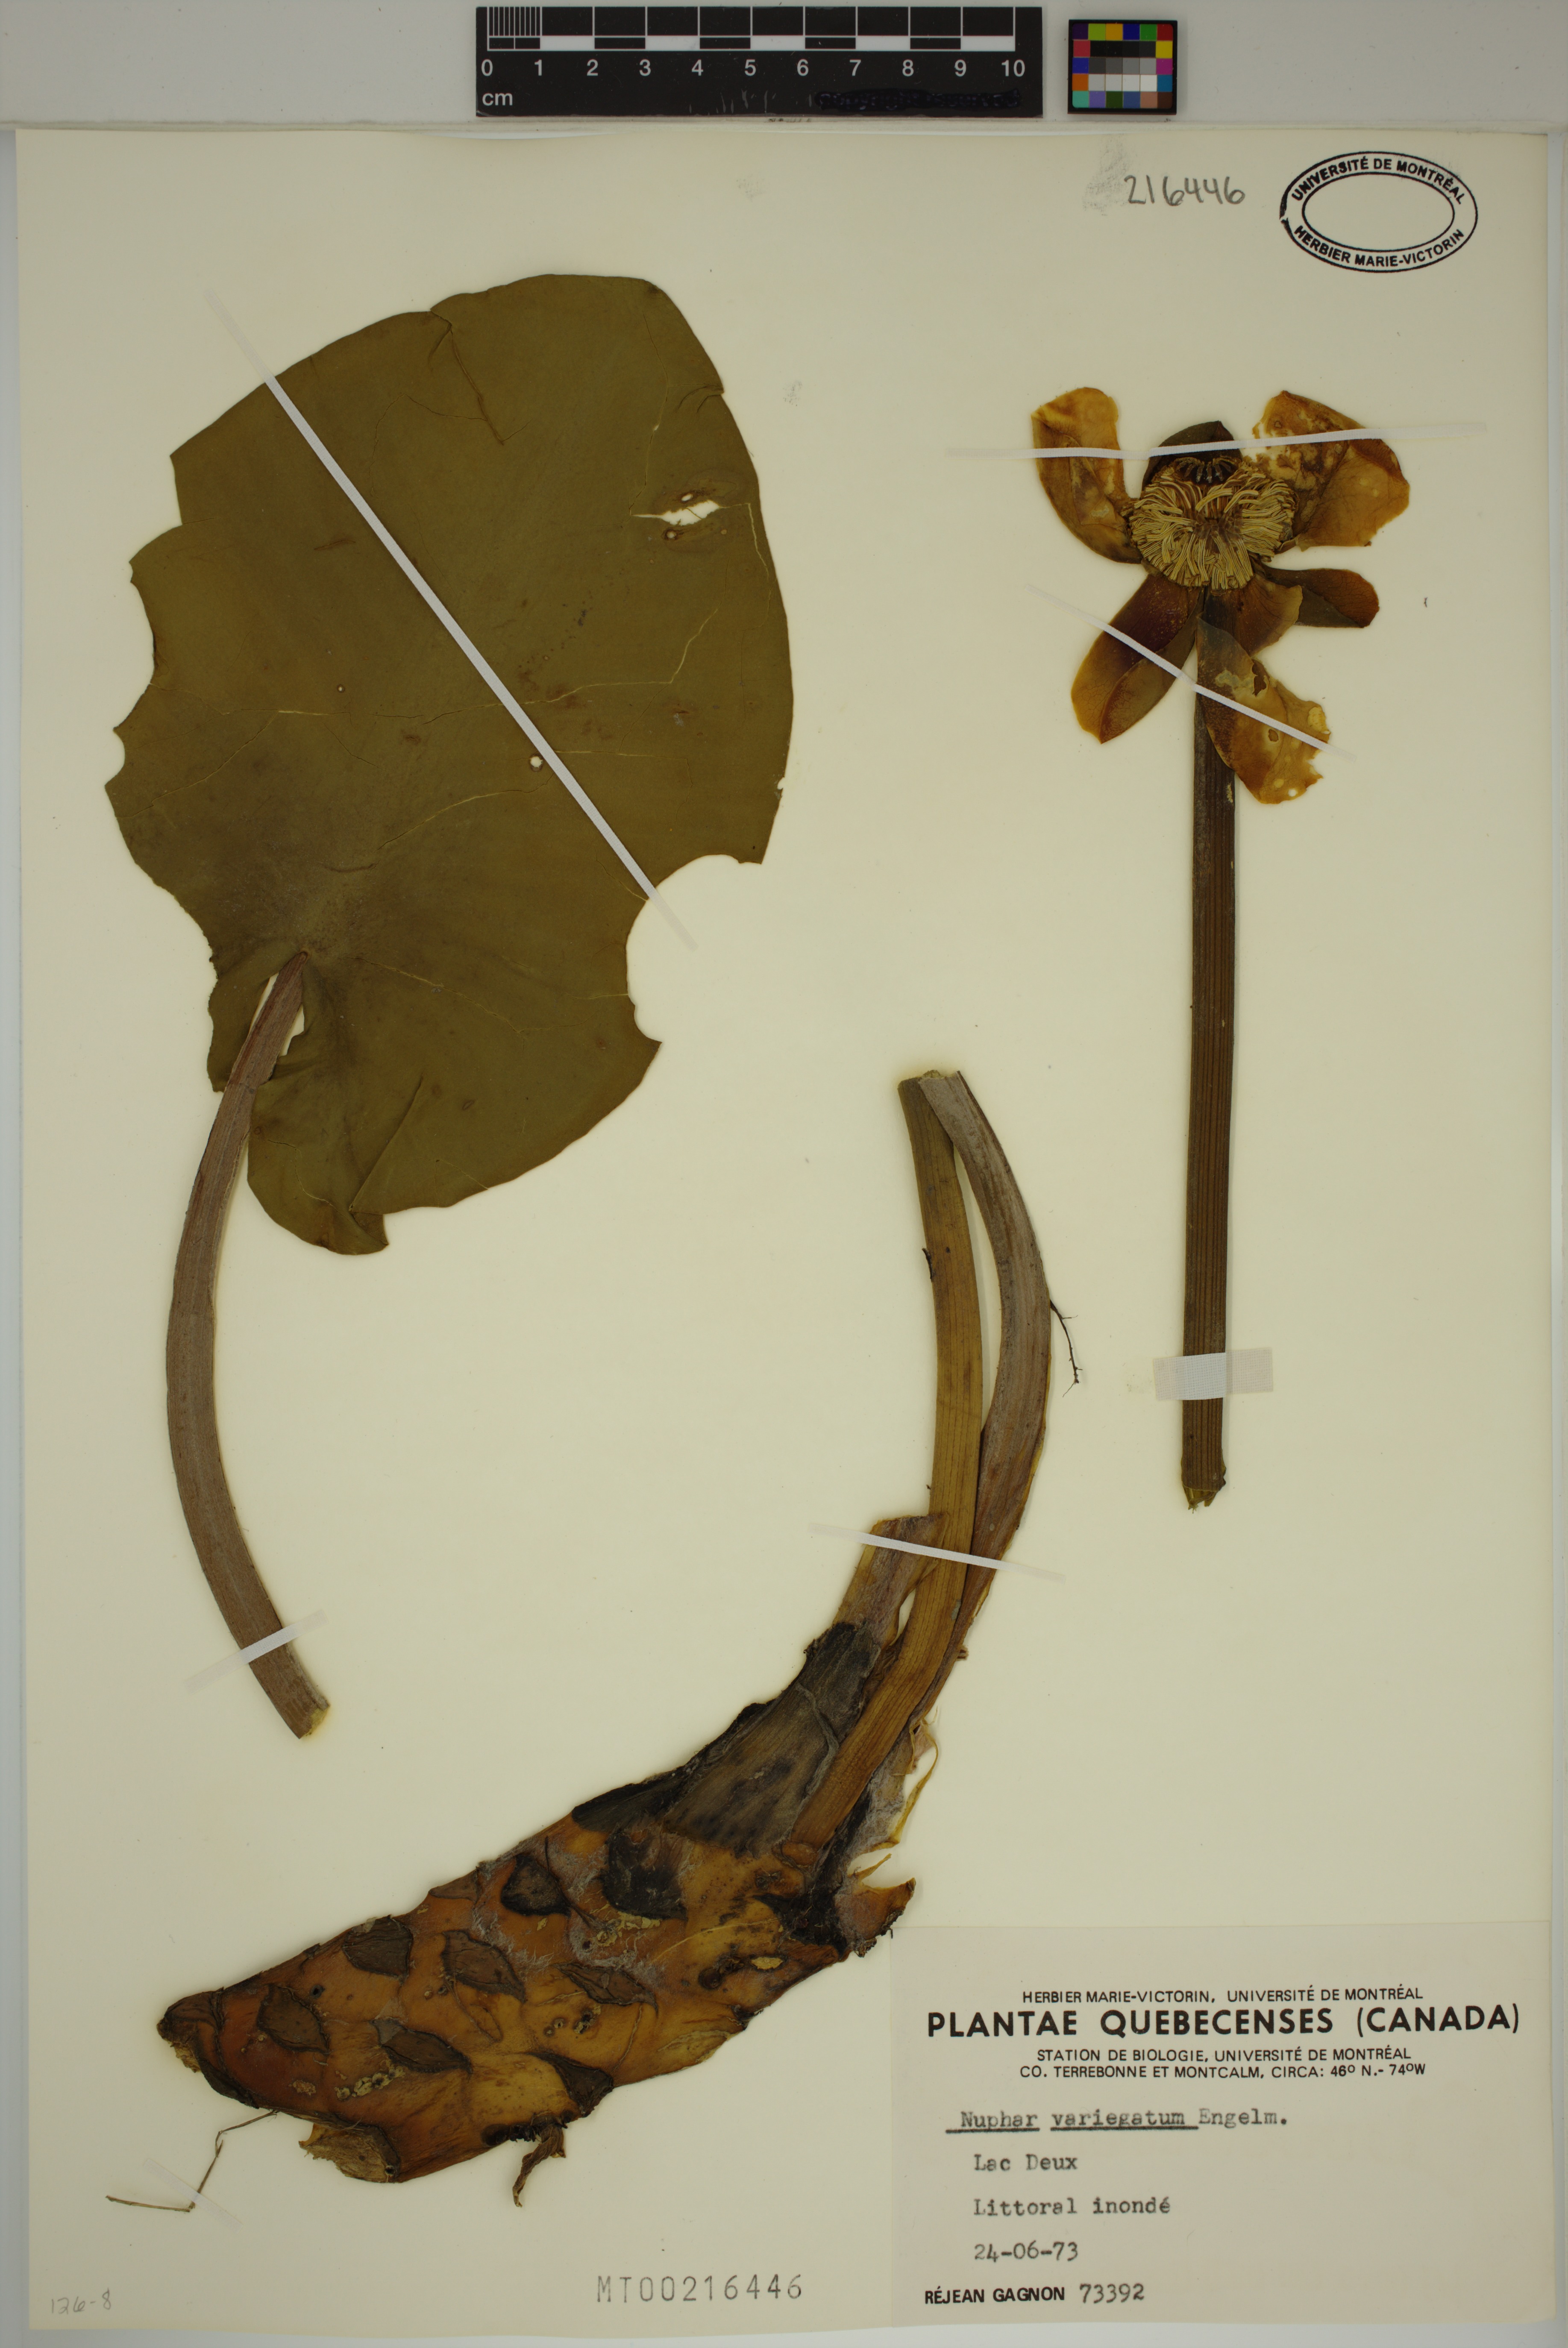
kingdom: Plantae
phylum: Tracheophyta
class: Magnoliopsida
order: Nymphaeales
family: Nymphaeaceae
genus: Nuphar
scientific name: Nuphar variegata
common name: Beaver-root
